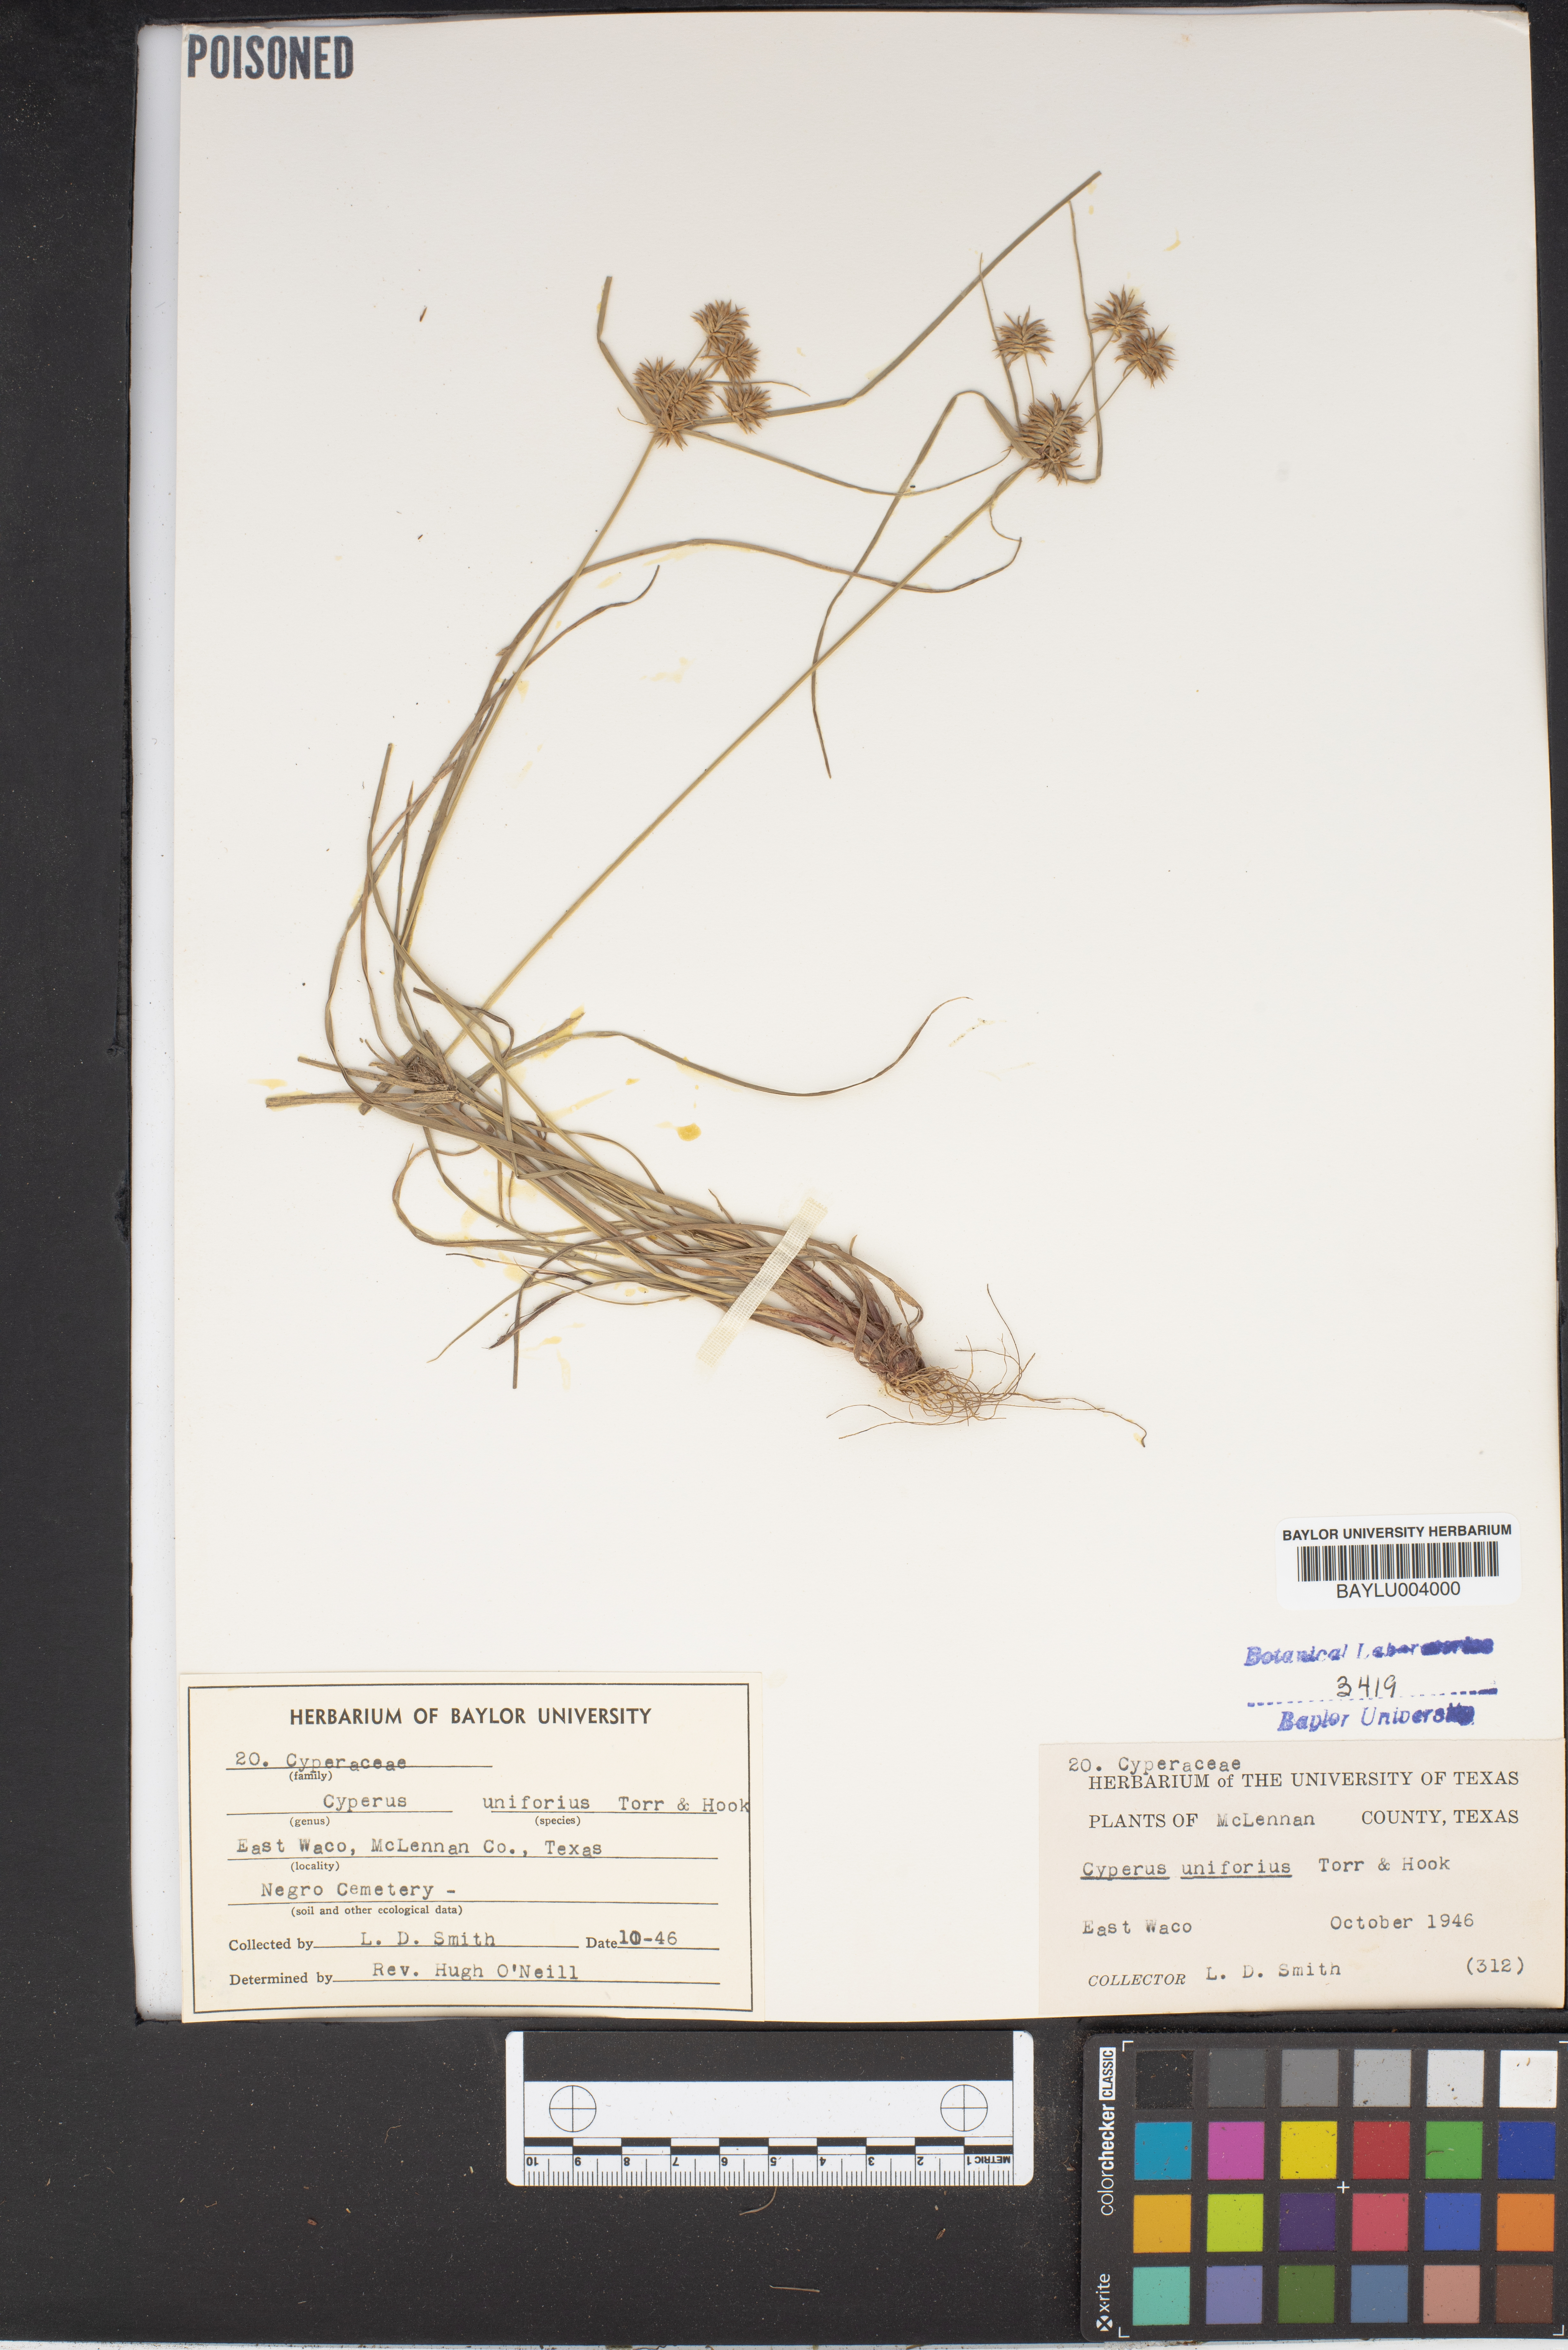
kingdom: Plantae
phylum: Tracheophyta
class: Liliopsida
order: Poales
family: Cyperaceae
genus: Cyperus
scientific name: Cyperus retroflexus
